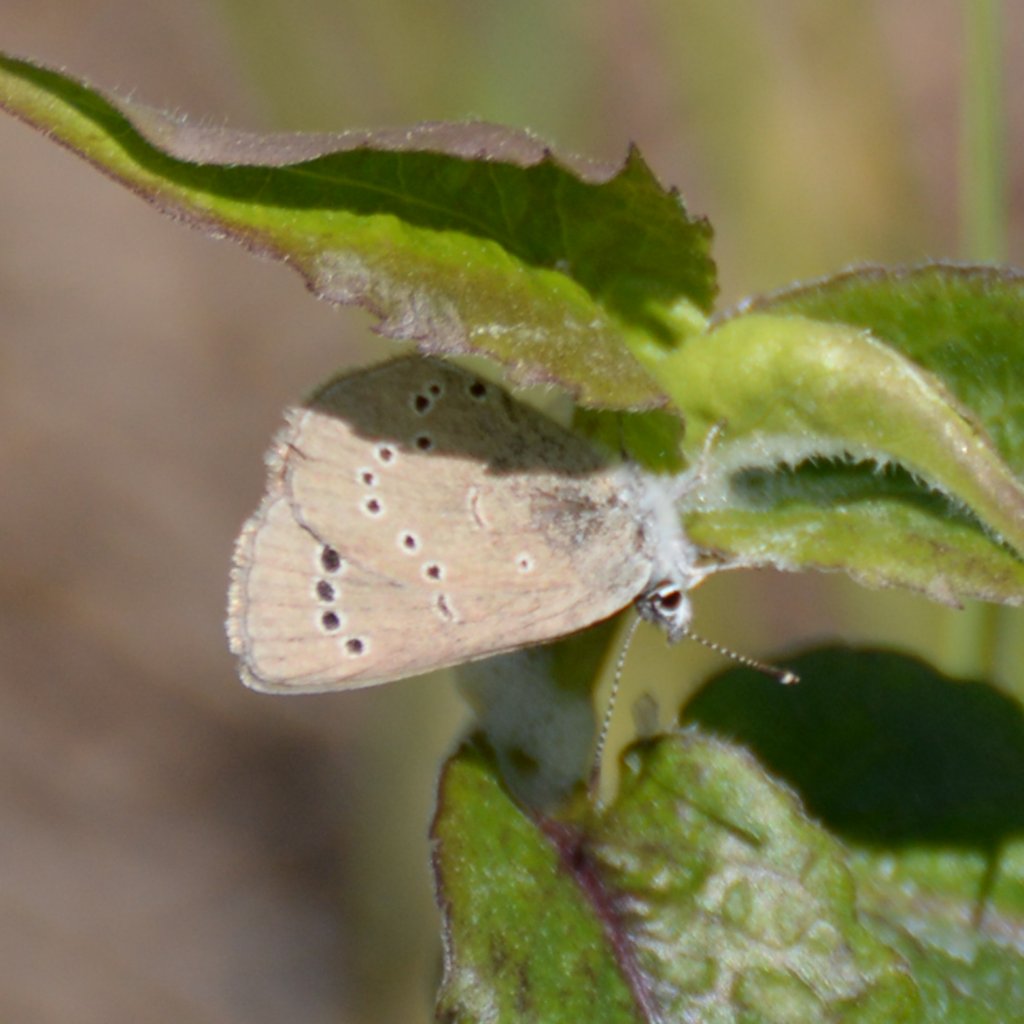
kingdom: Animalia
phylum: Arthropoda
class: Insecta
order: Lepidoptera
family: Lycaenidae
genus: Glaucopsyche
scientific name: Glaucopsyche lygdamus
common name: Silvery Blue
